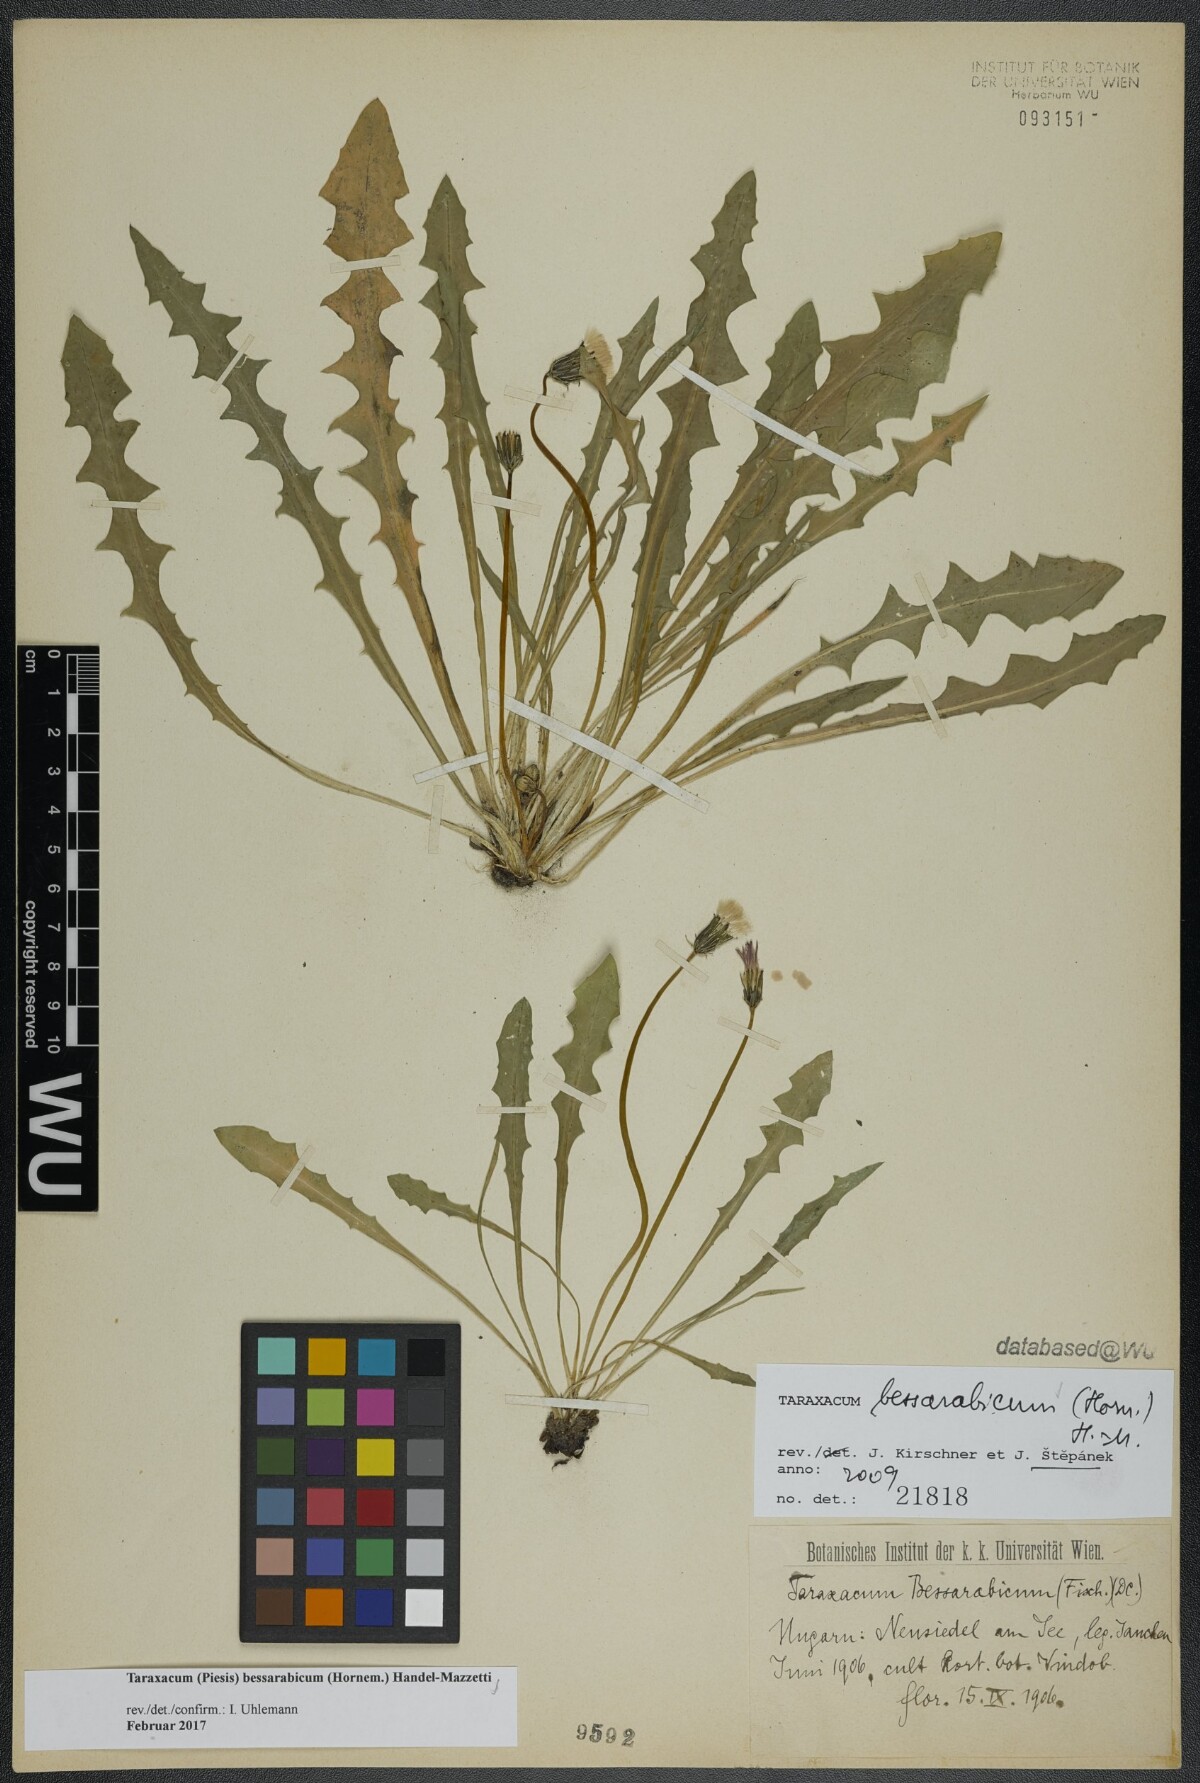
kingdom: Plantae
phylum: Tracheophyta
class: Magnoliopsida
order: Asterales
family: Asteraceae
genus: Taraxacum
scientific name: Taraxacum bessarabicum
